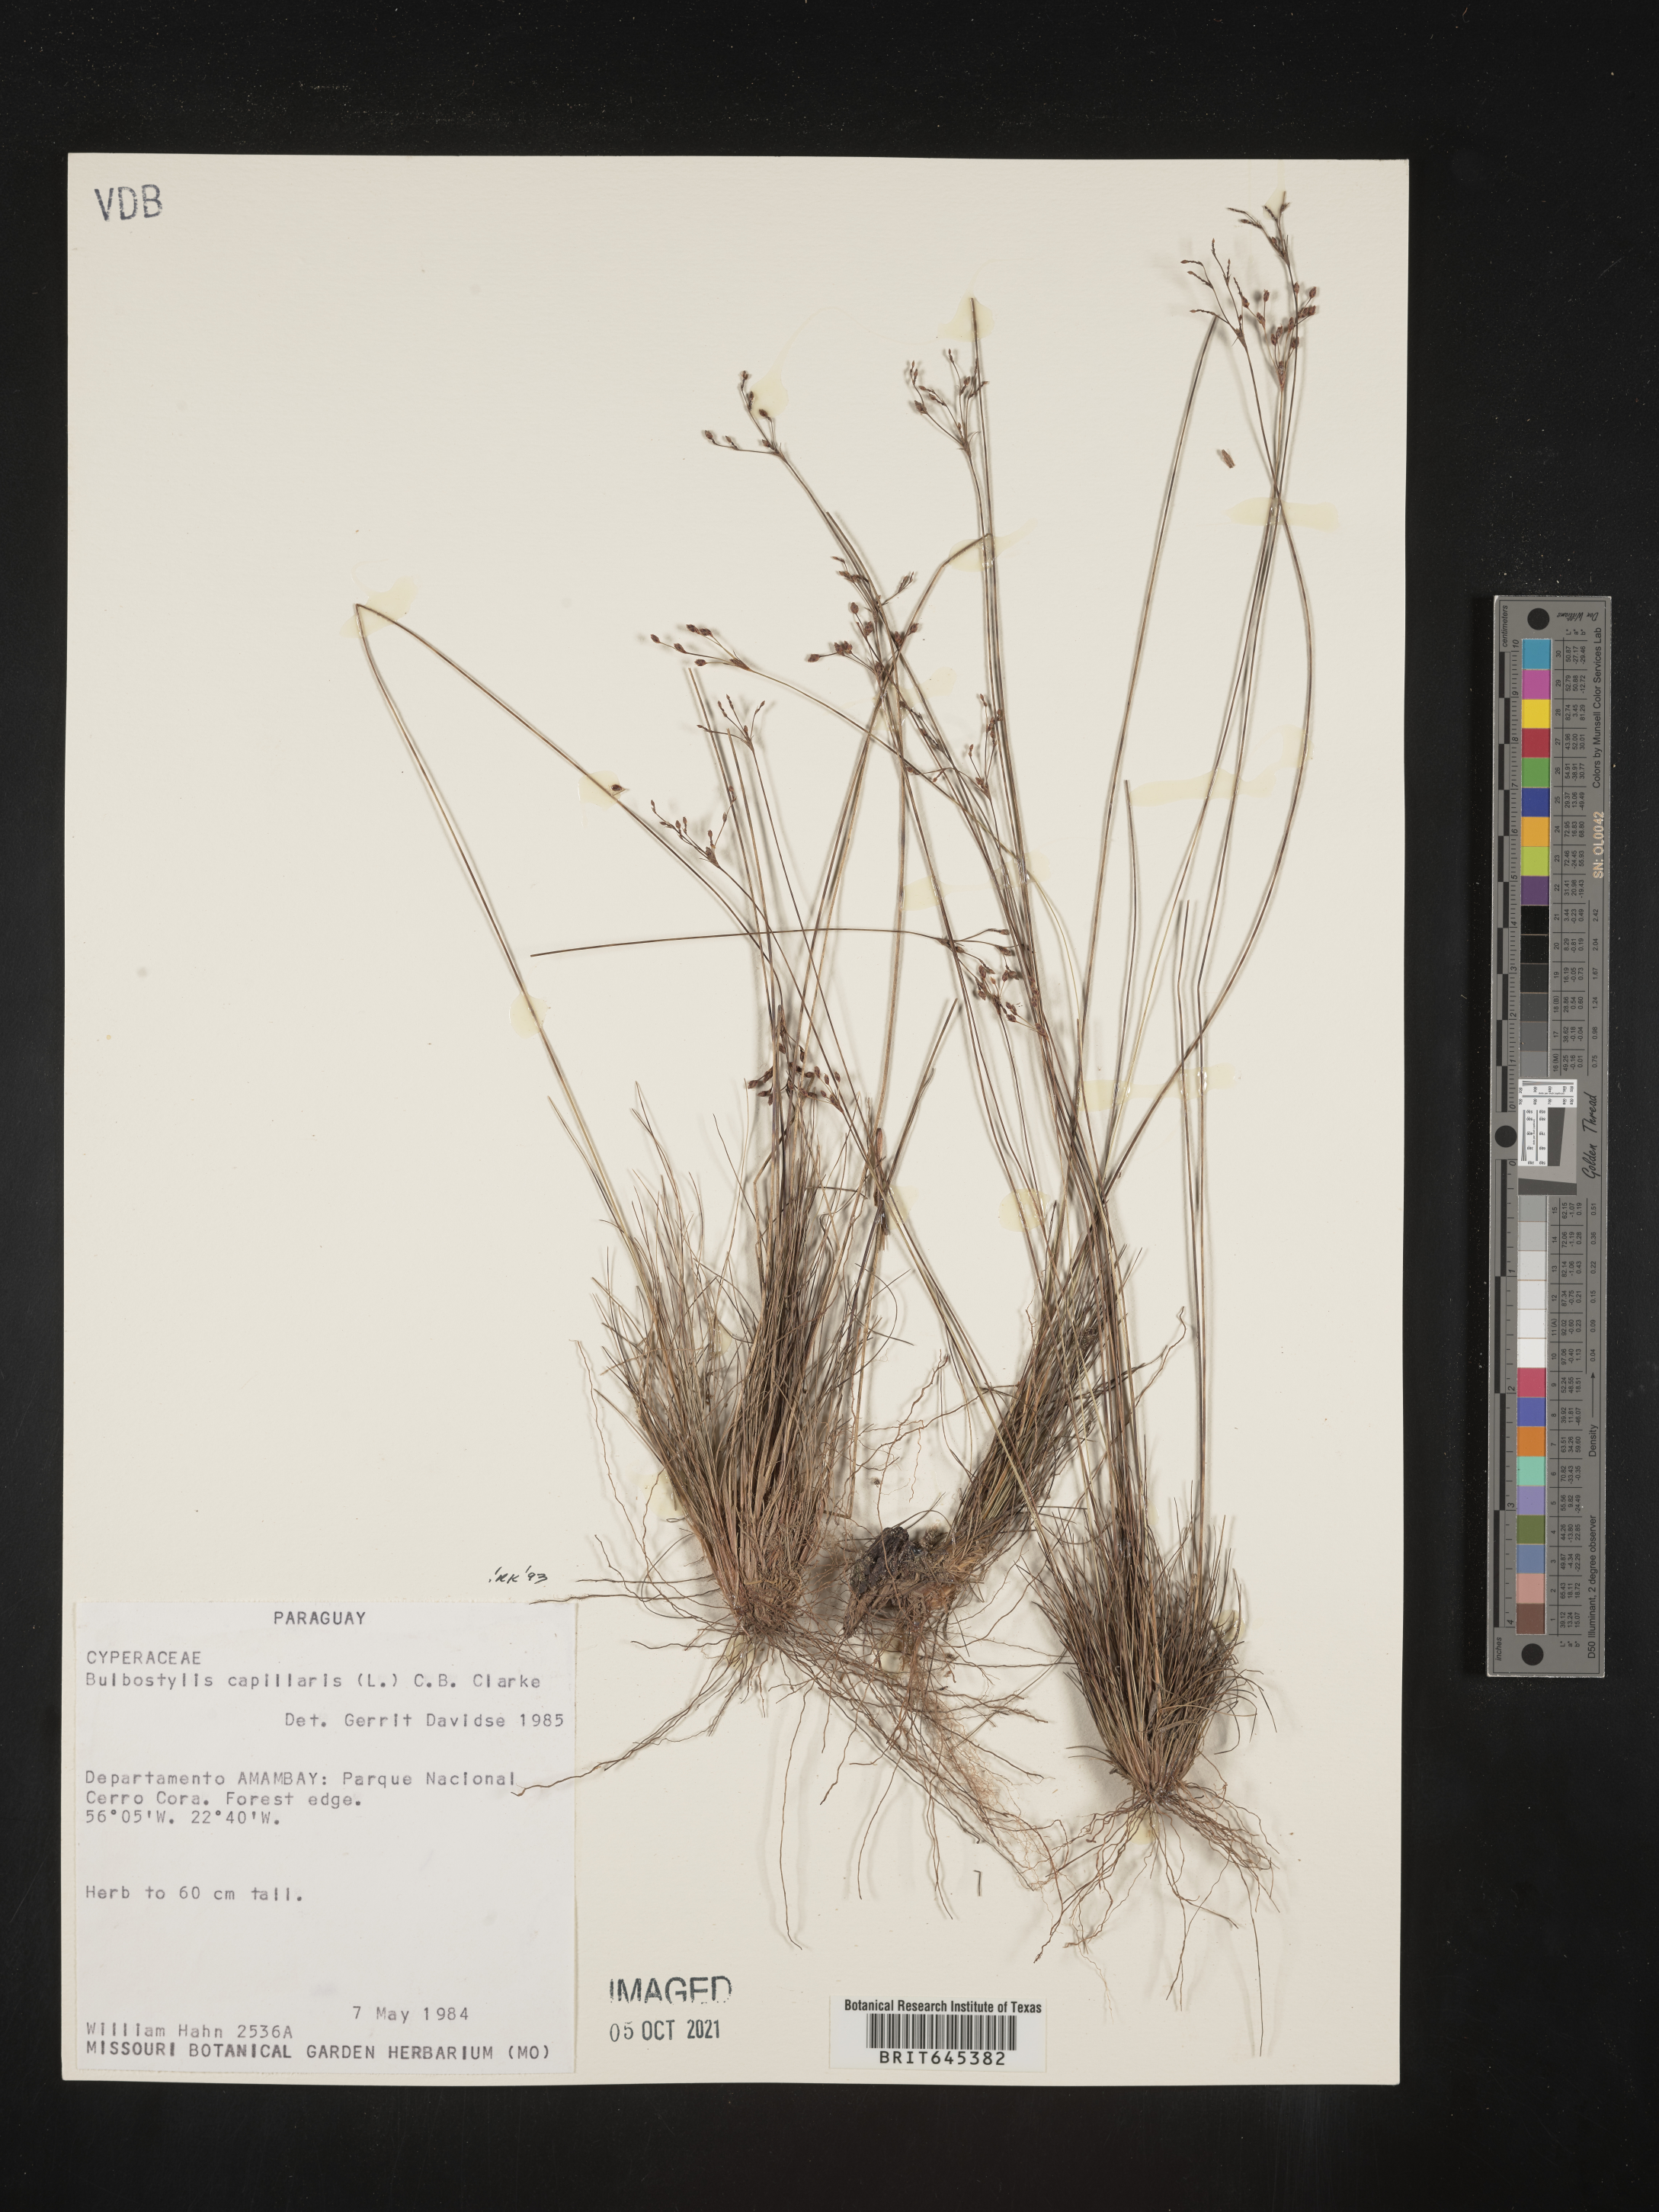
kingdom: Plantae
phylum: Tracheophyta
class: Liliopsida
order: Poales
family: Cyperaceae
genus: Bulbostylis
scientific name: Bulbostylis capillaris
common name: Densetuft hairsedge
